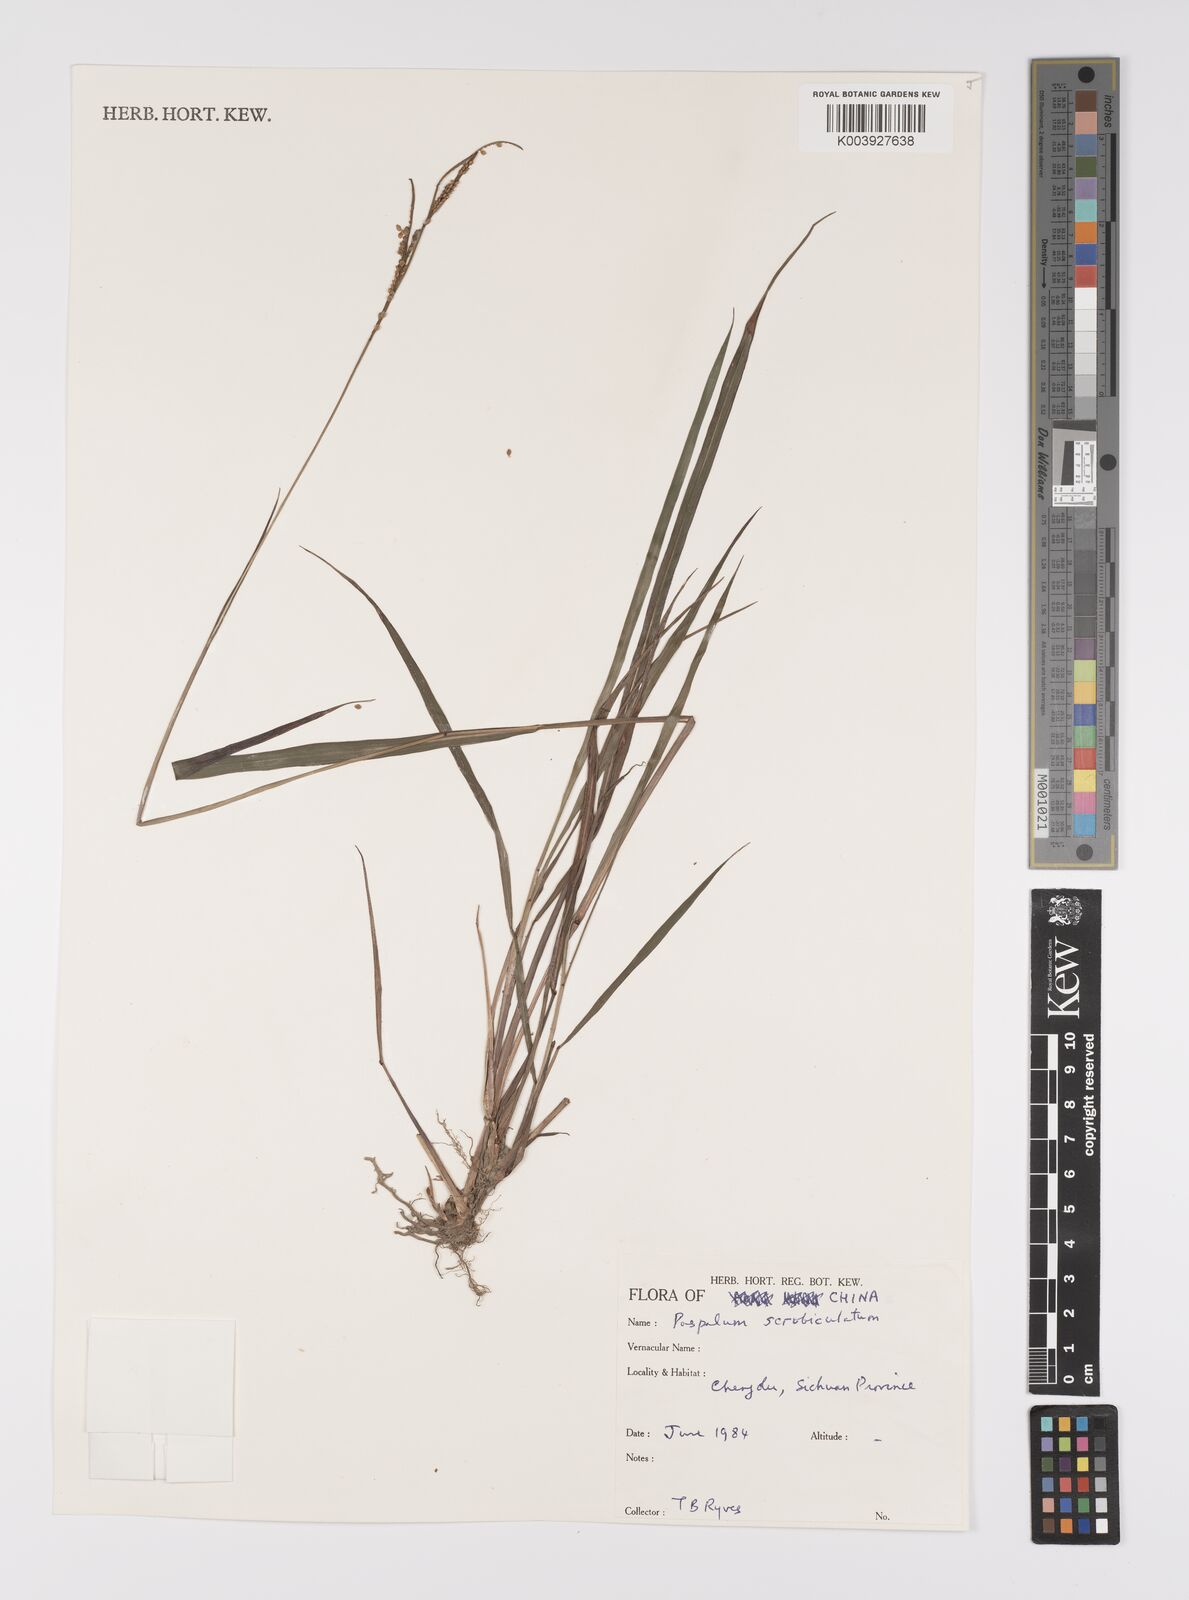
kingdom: Plantae
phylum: Tracheophyta
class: Liliopsida
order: Poales
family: Poaceae
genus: Paspalum
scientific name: Paspalum orbiculare
